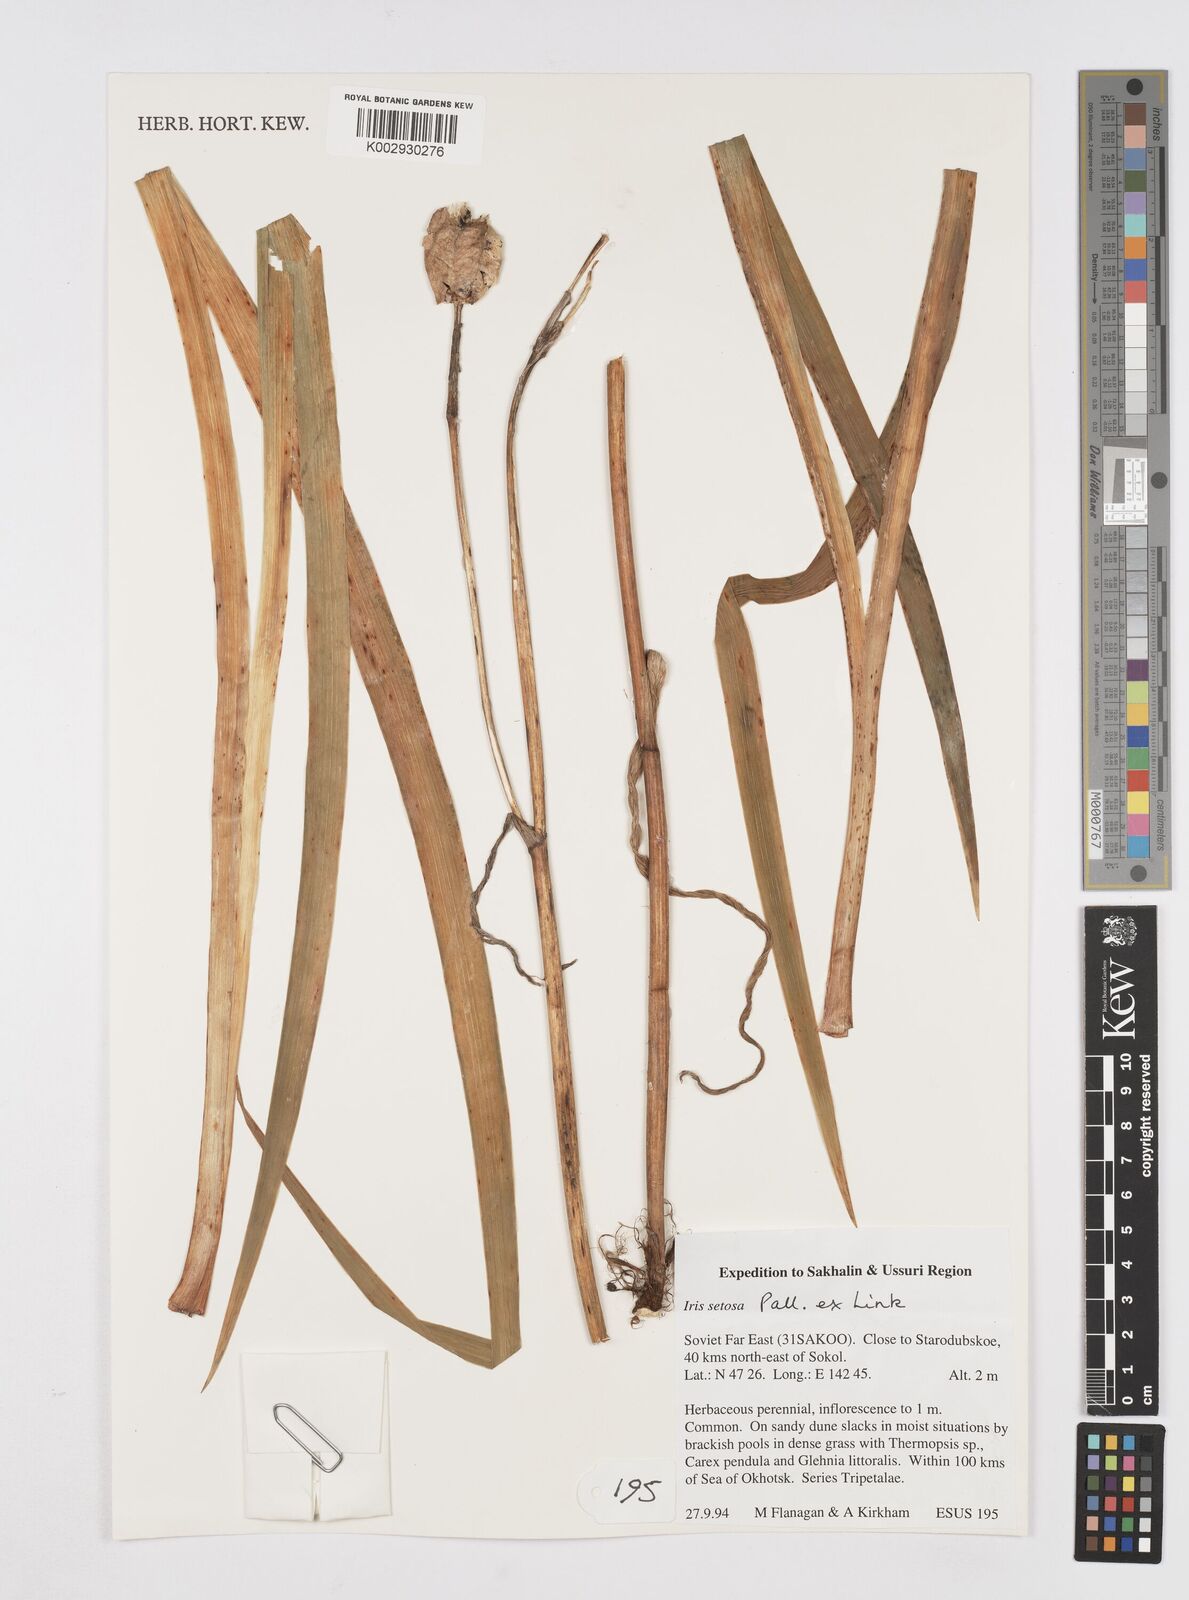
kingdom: Plantae
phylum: Tracheophyta
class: Liliopsida
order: Asparagales
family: Iridaceae
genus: Iris
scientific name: Iris setosa
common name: Arctic blue flag
